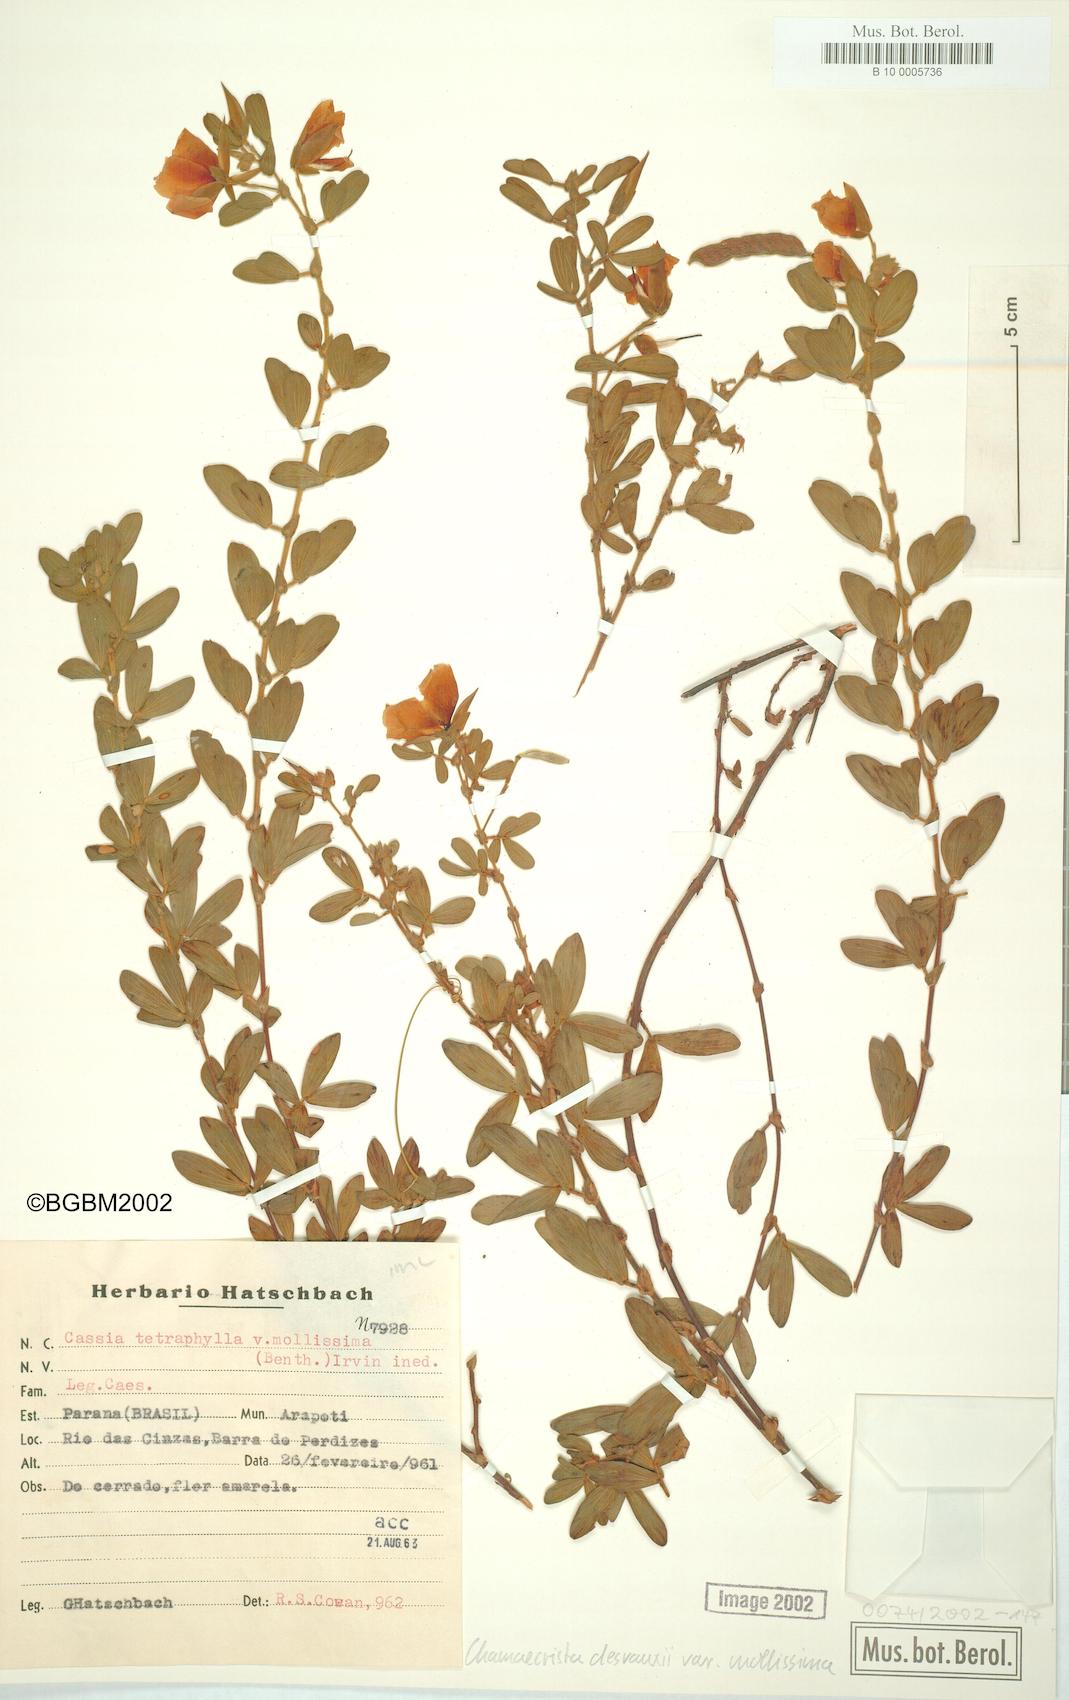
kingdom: Plantae
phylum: Tracheophyta
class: Magnoliopsida
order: Fabales
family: Fabaceae
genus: Chamaecrista
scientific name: Chamaecrista desvauxii
